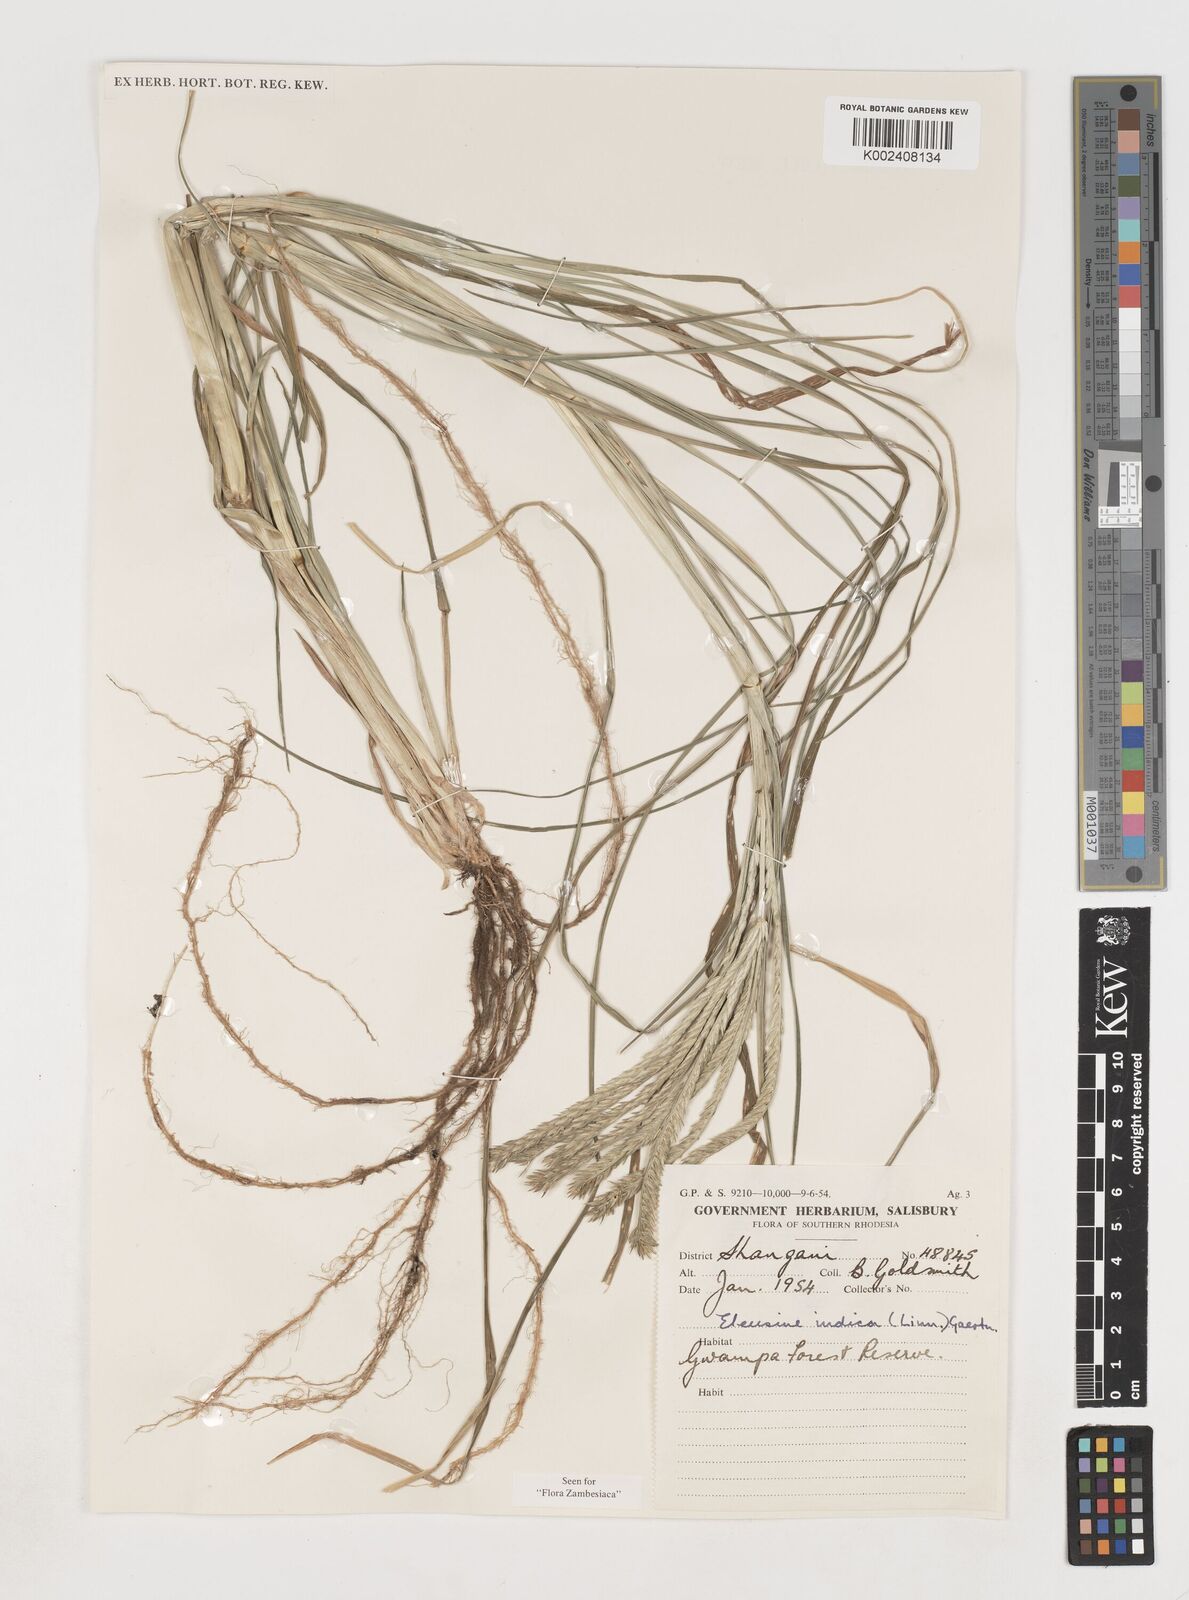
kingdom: Plantae
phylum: Tracheophyta
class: Liliopsida
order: Poales
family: Poaceae
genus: Eleusine
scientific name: Eleusine africana
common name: Wild african finger millet
